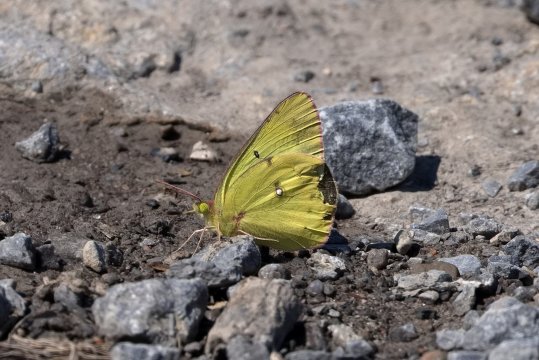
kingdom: Animalia
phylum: Arthropoda
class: Insecta
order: Lepidoptera
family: Pieridae
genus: Colias
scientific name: Colias philodice
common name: Clouded Sulphur
